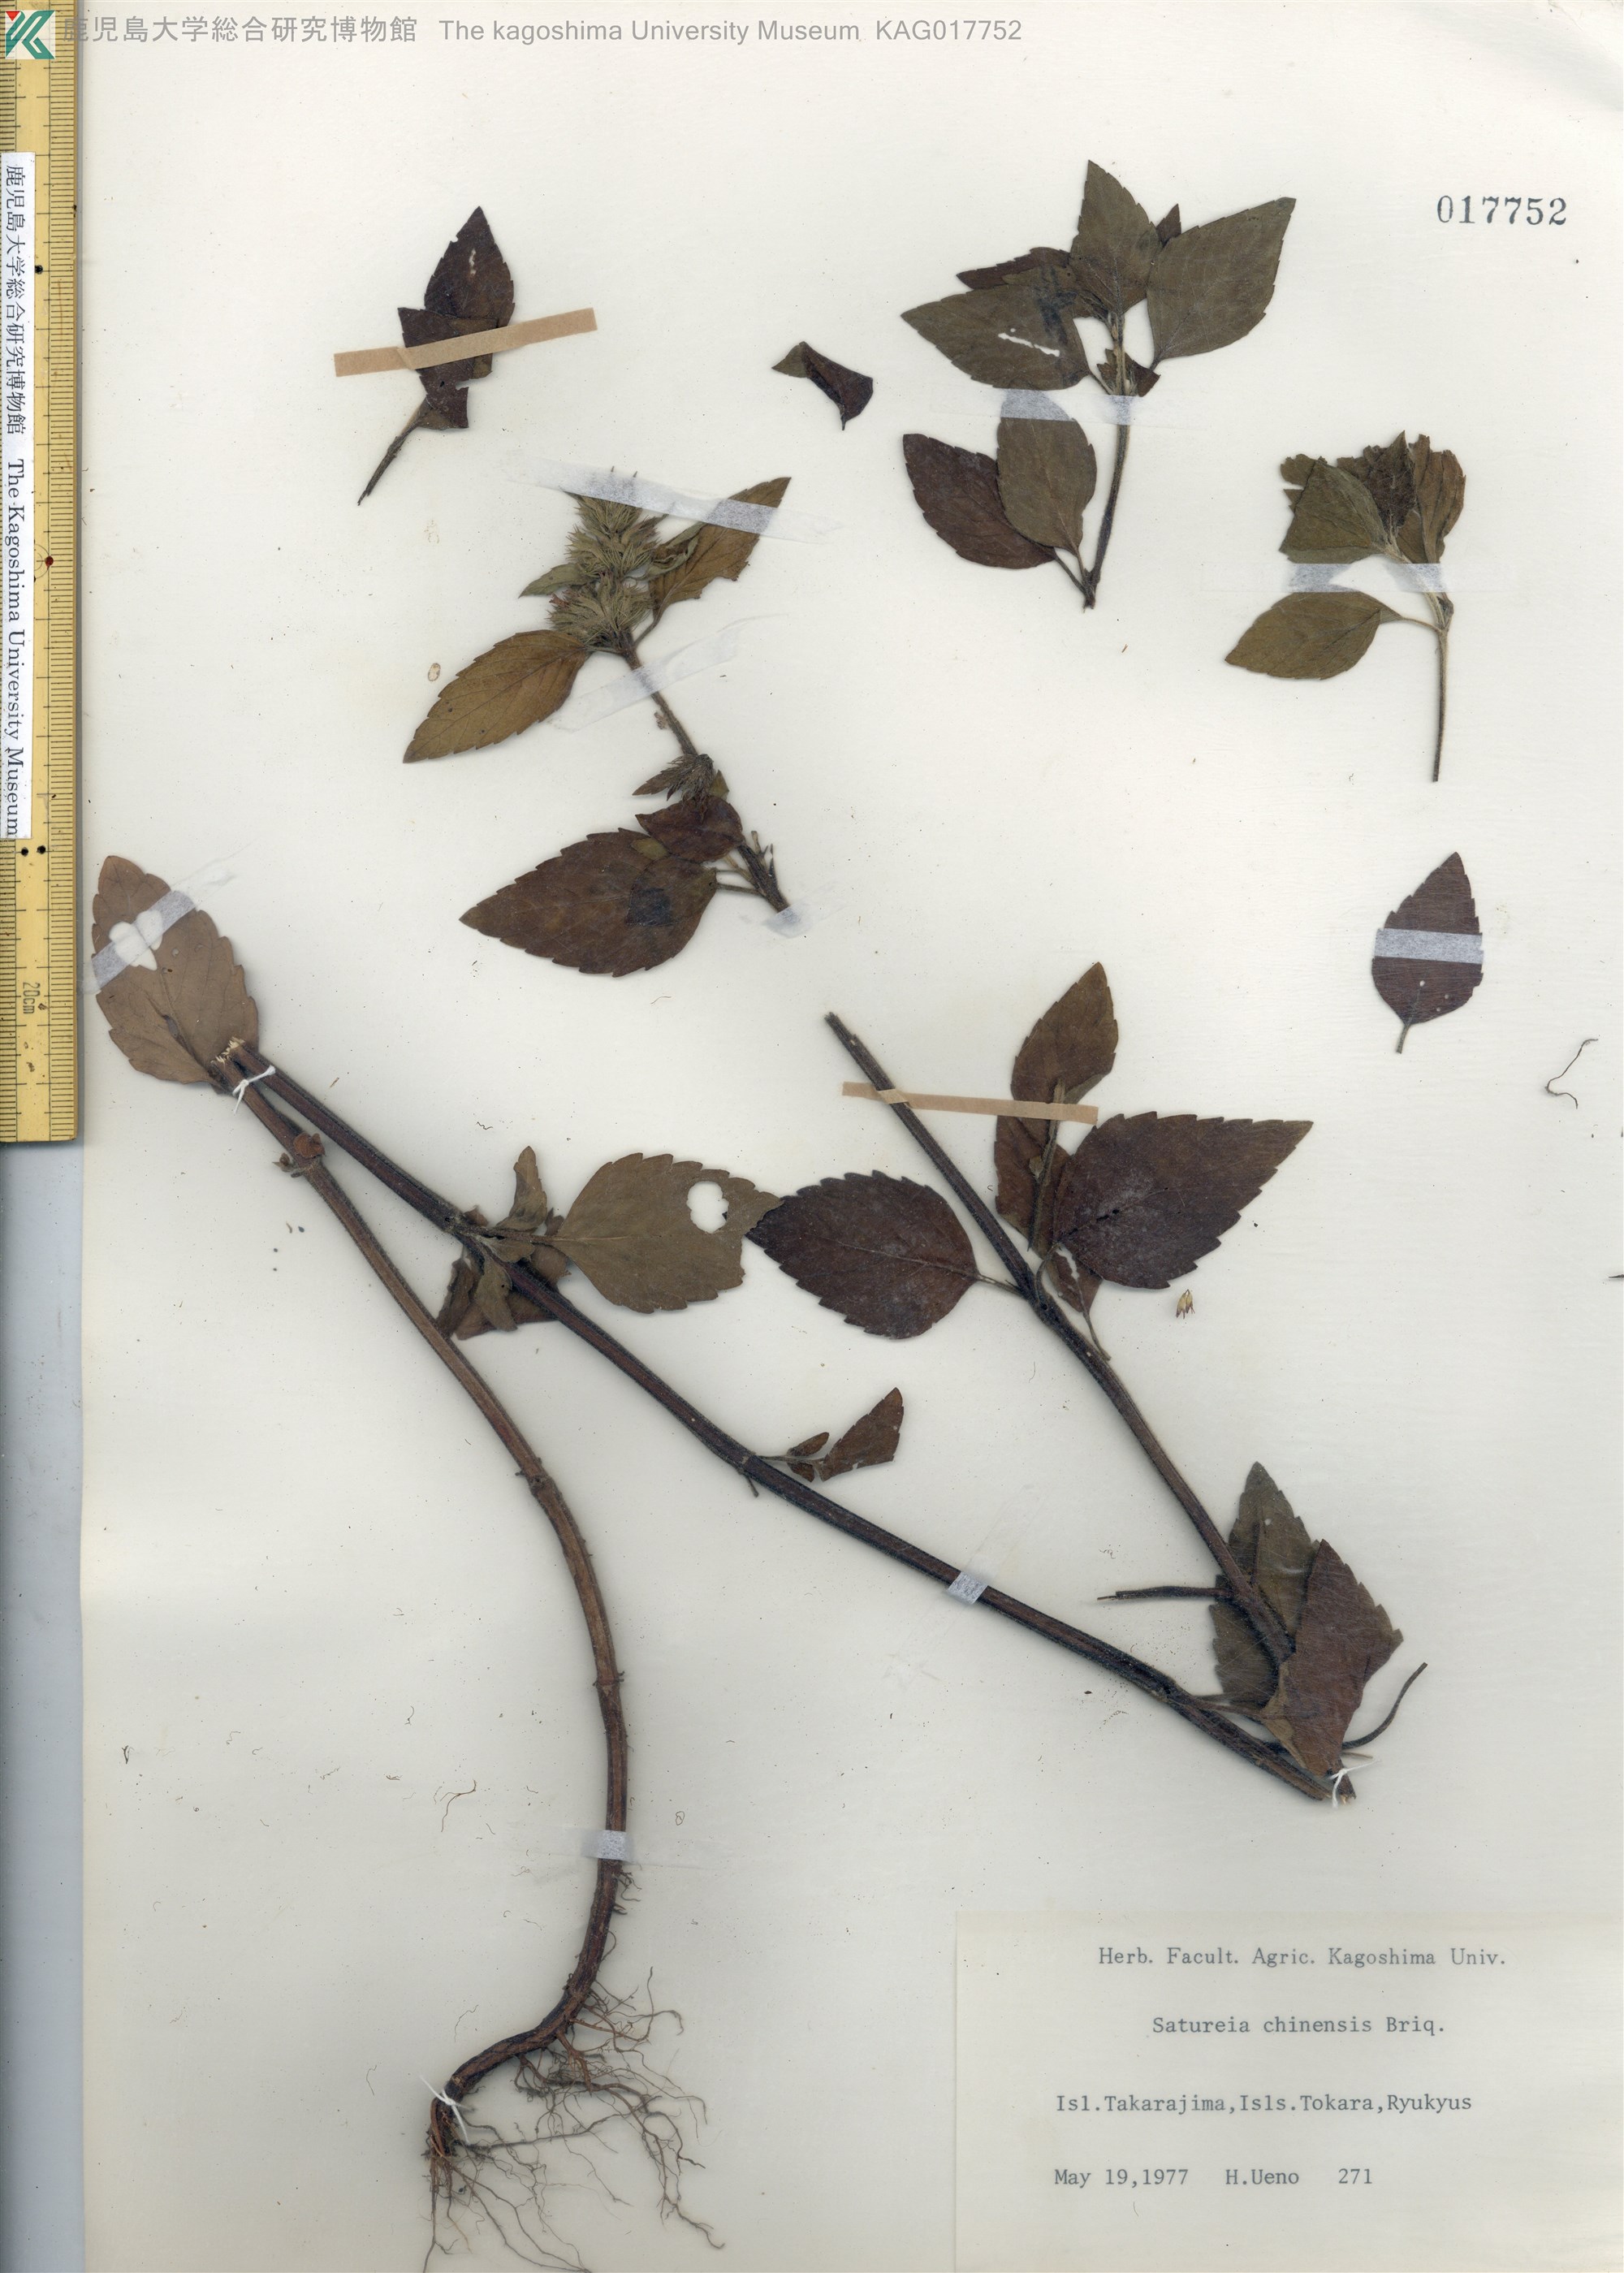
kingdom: Plantae
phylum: Tracheophyta
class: Magnoliopsida
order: Lamiales
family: Lamiaceae
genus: Clinopodium
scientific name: Clinopodium chinense
